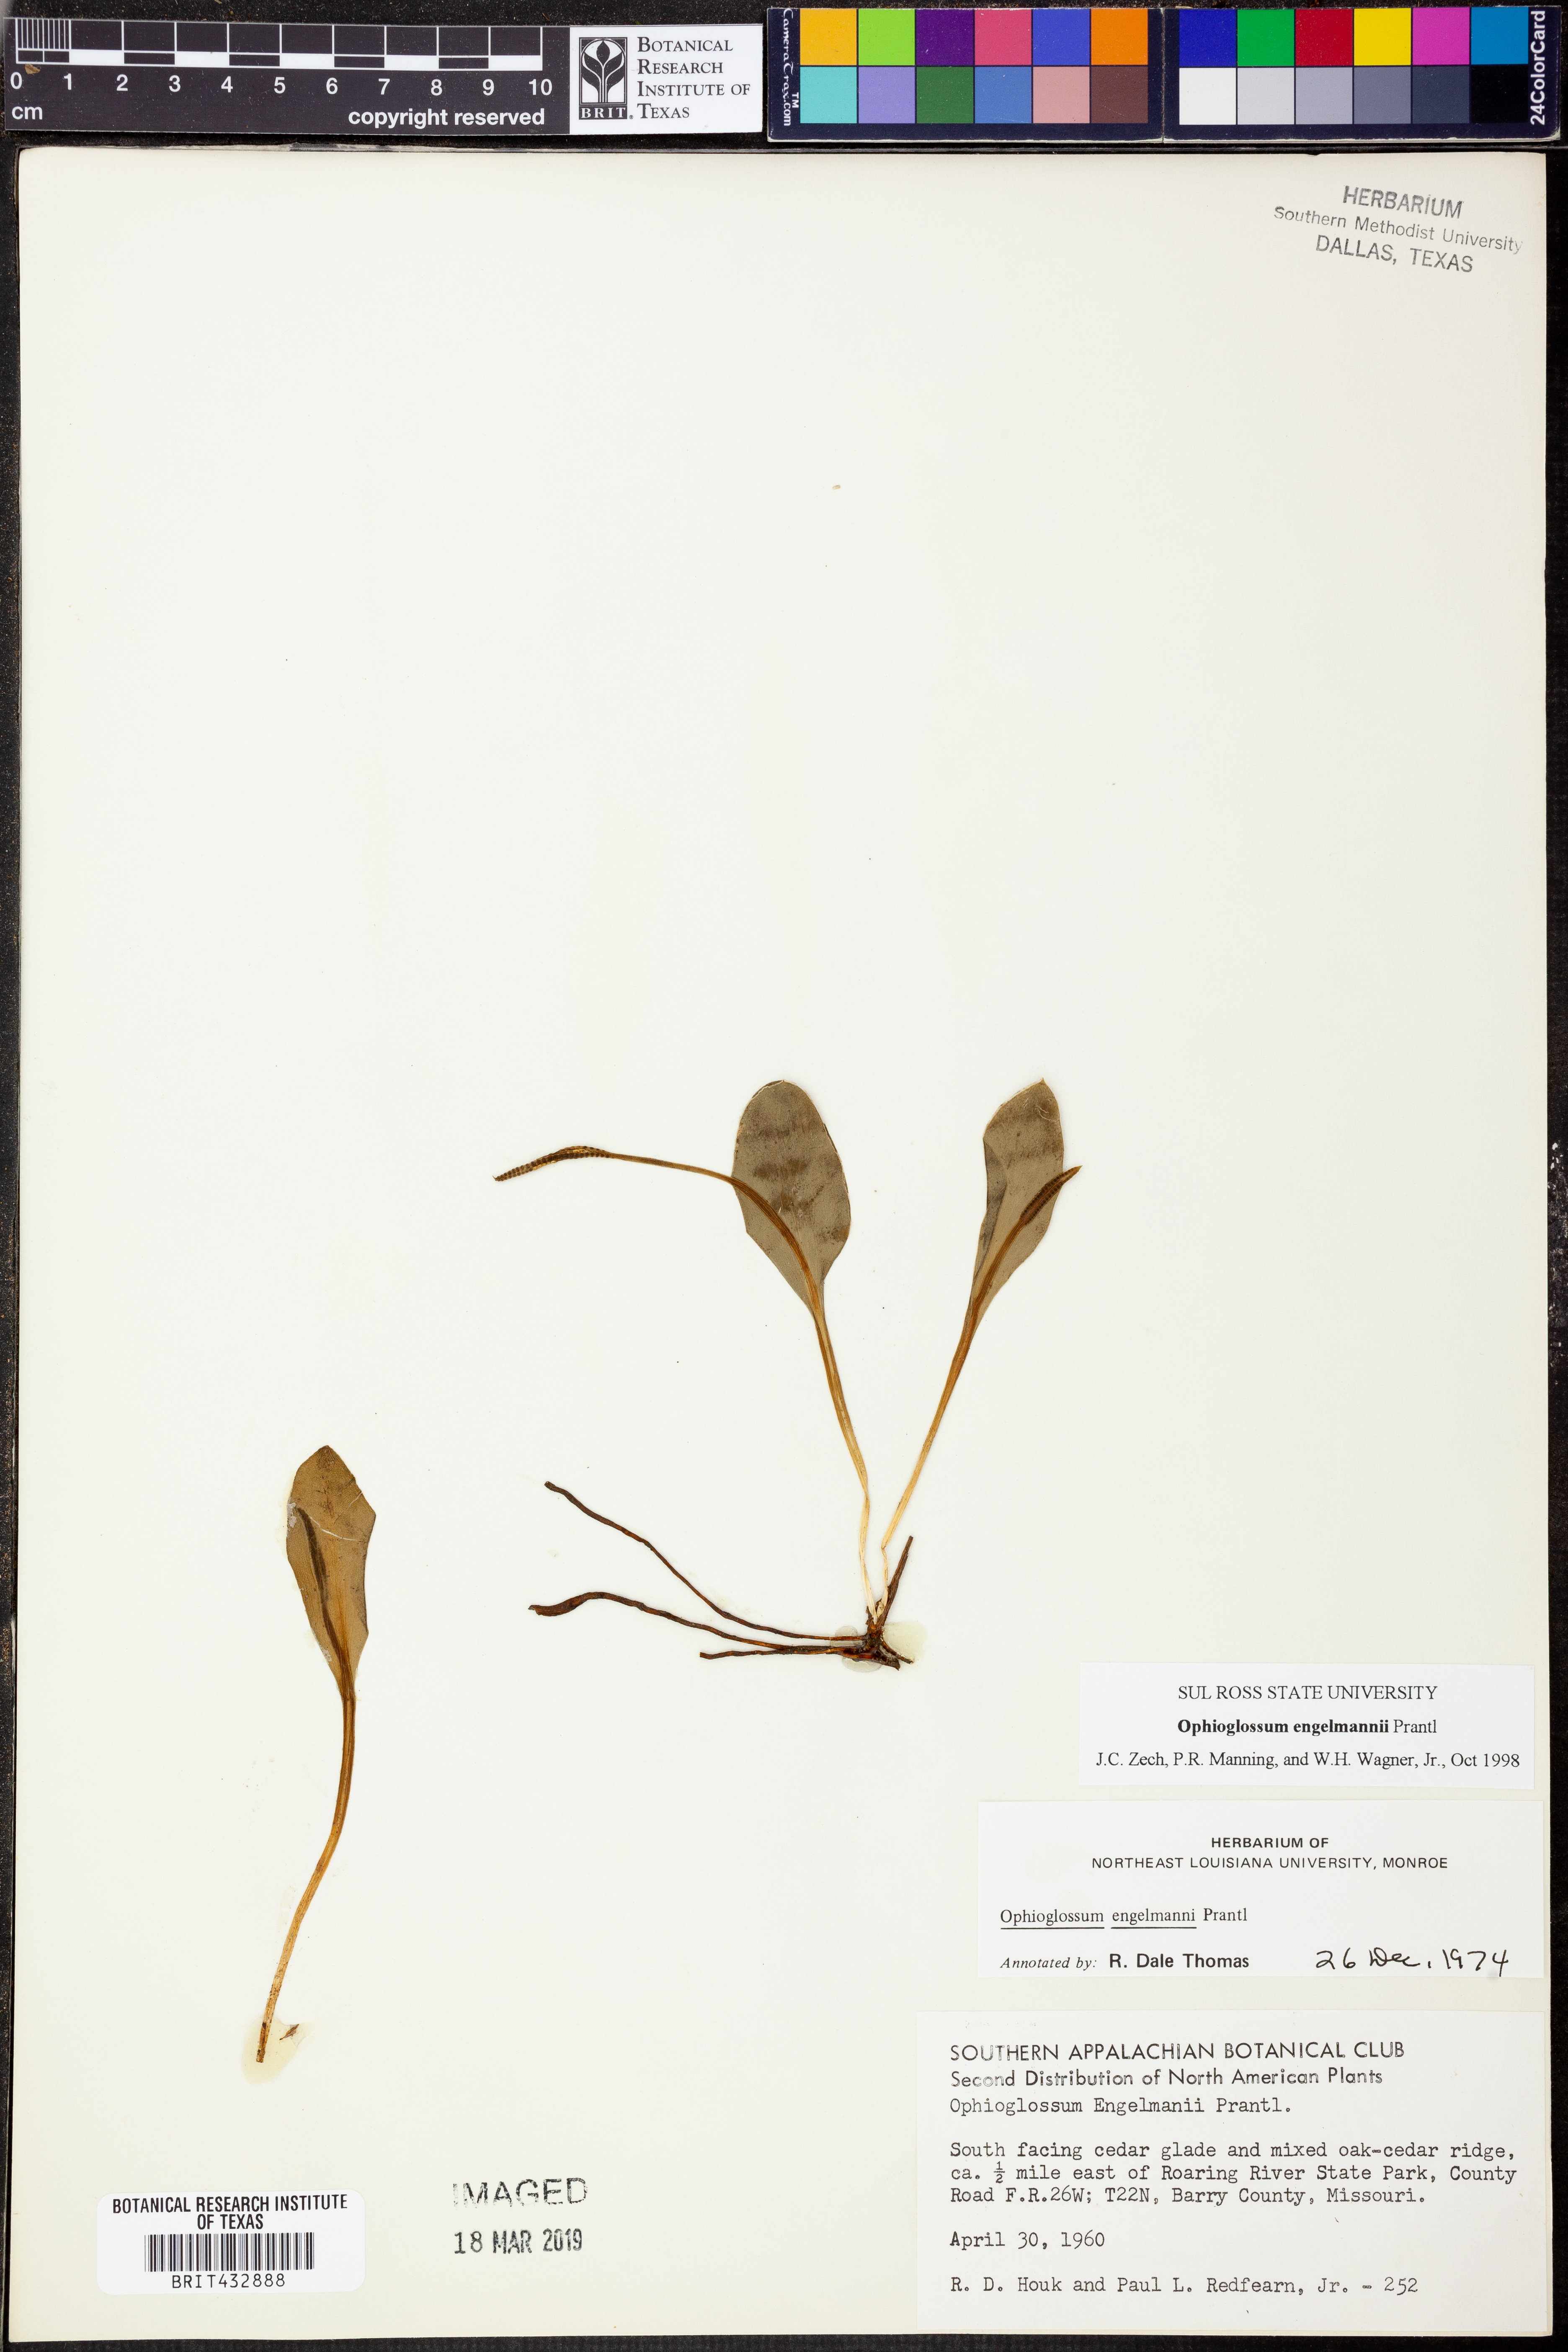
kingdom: Plantae
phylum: Tracheophyta
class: Polypodiopsida
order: Ophioglossales
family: Ophioglossaceae
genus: Ophioglossum
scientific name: Ophioglossum engelmannii
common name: Limestone adder's-tongue
